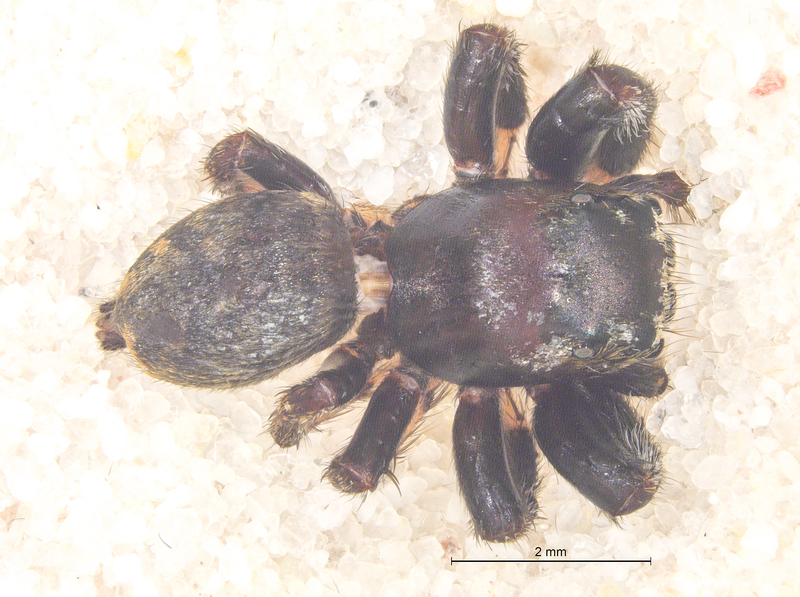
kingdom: Animalia
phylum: Arthropoda
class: Arachnida
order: Araneae
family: Salticidae
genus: Evarcha
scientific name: Evarcha arcuata
